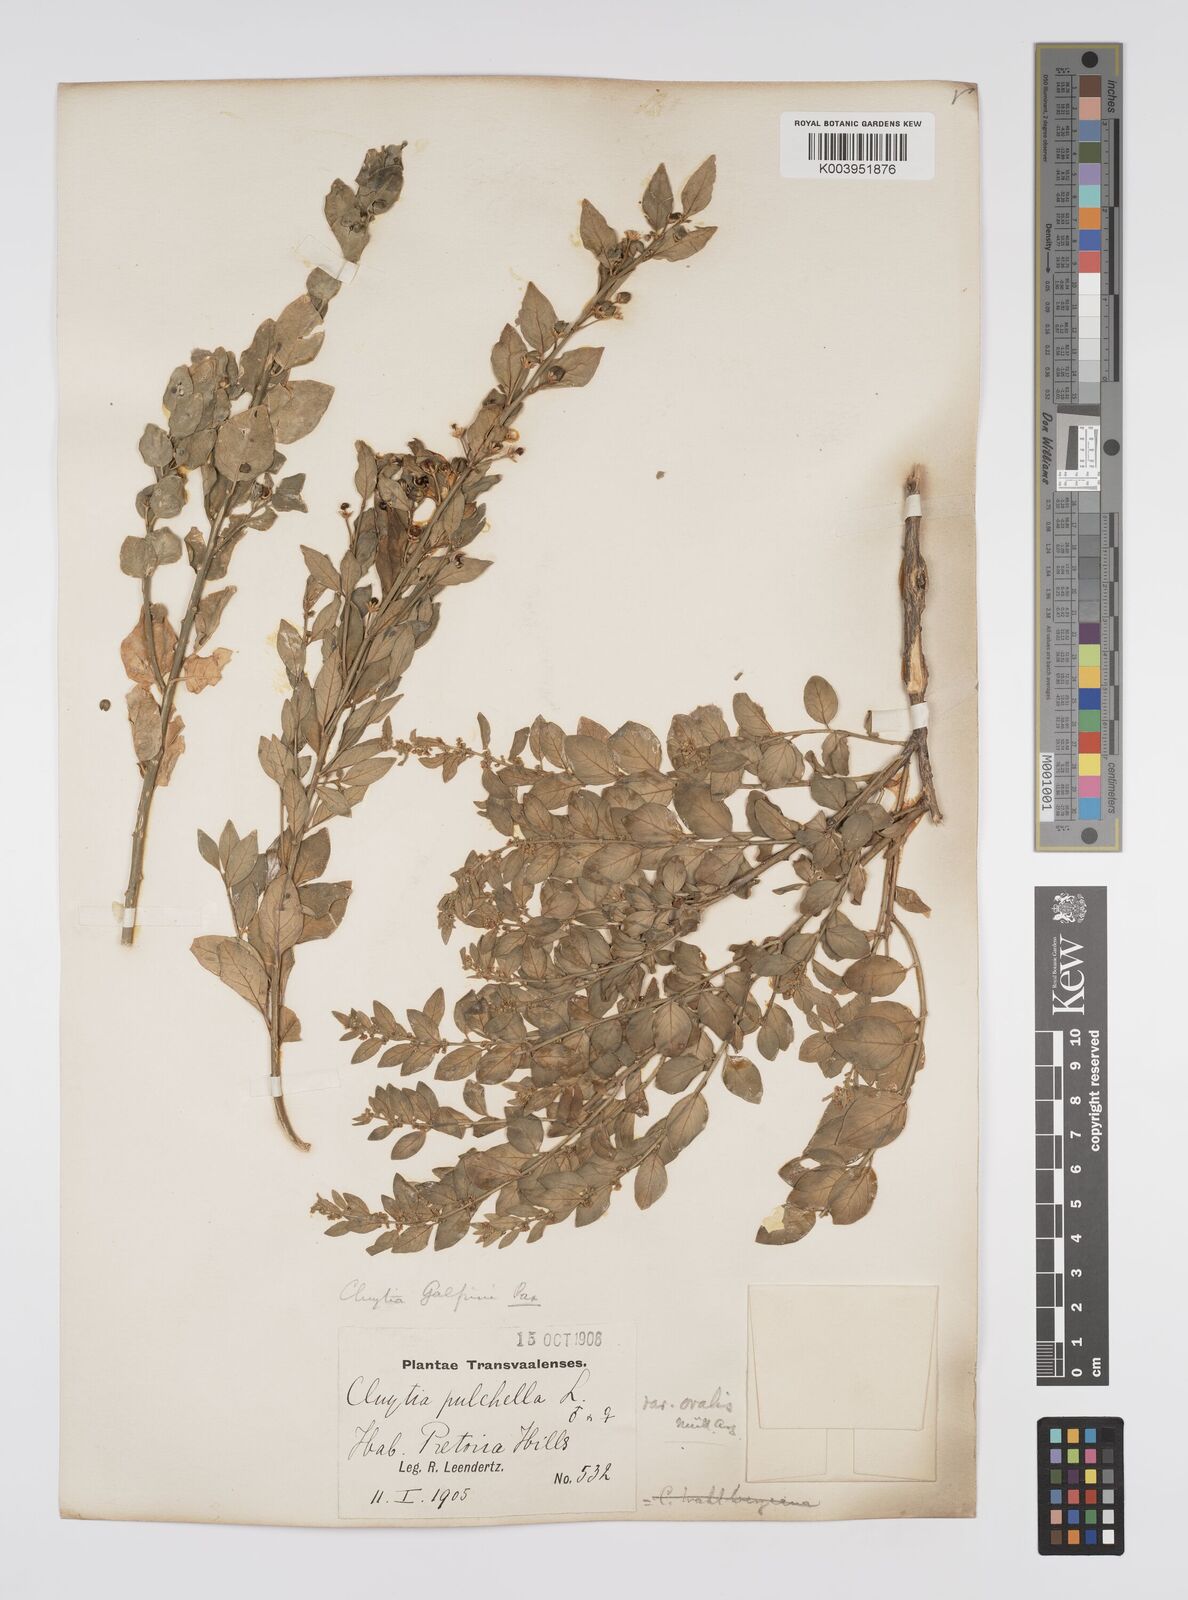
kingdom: Plantae
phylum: Tracheophyta
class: Magnoliopsida
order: Malpighiales
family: Peraceae
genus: Clutia
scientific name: Clutia galpinii
